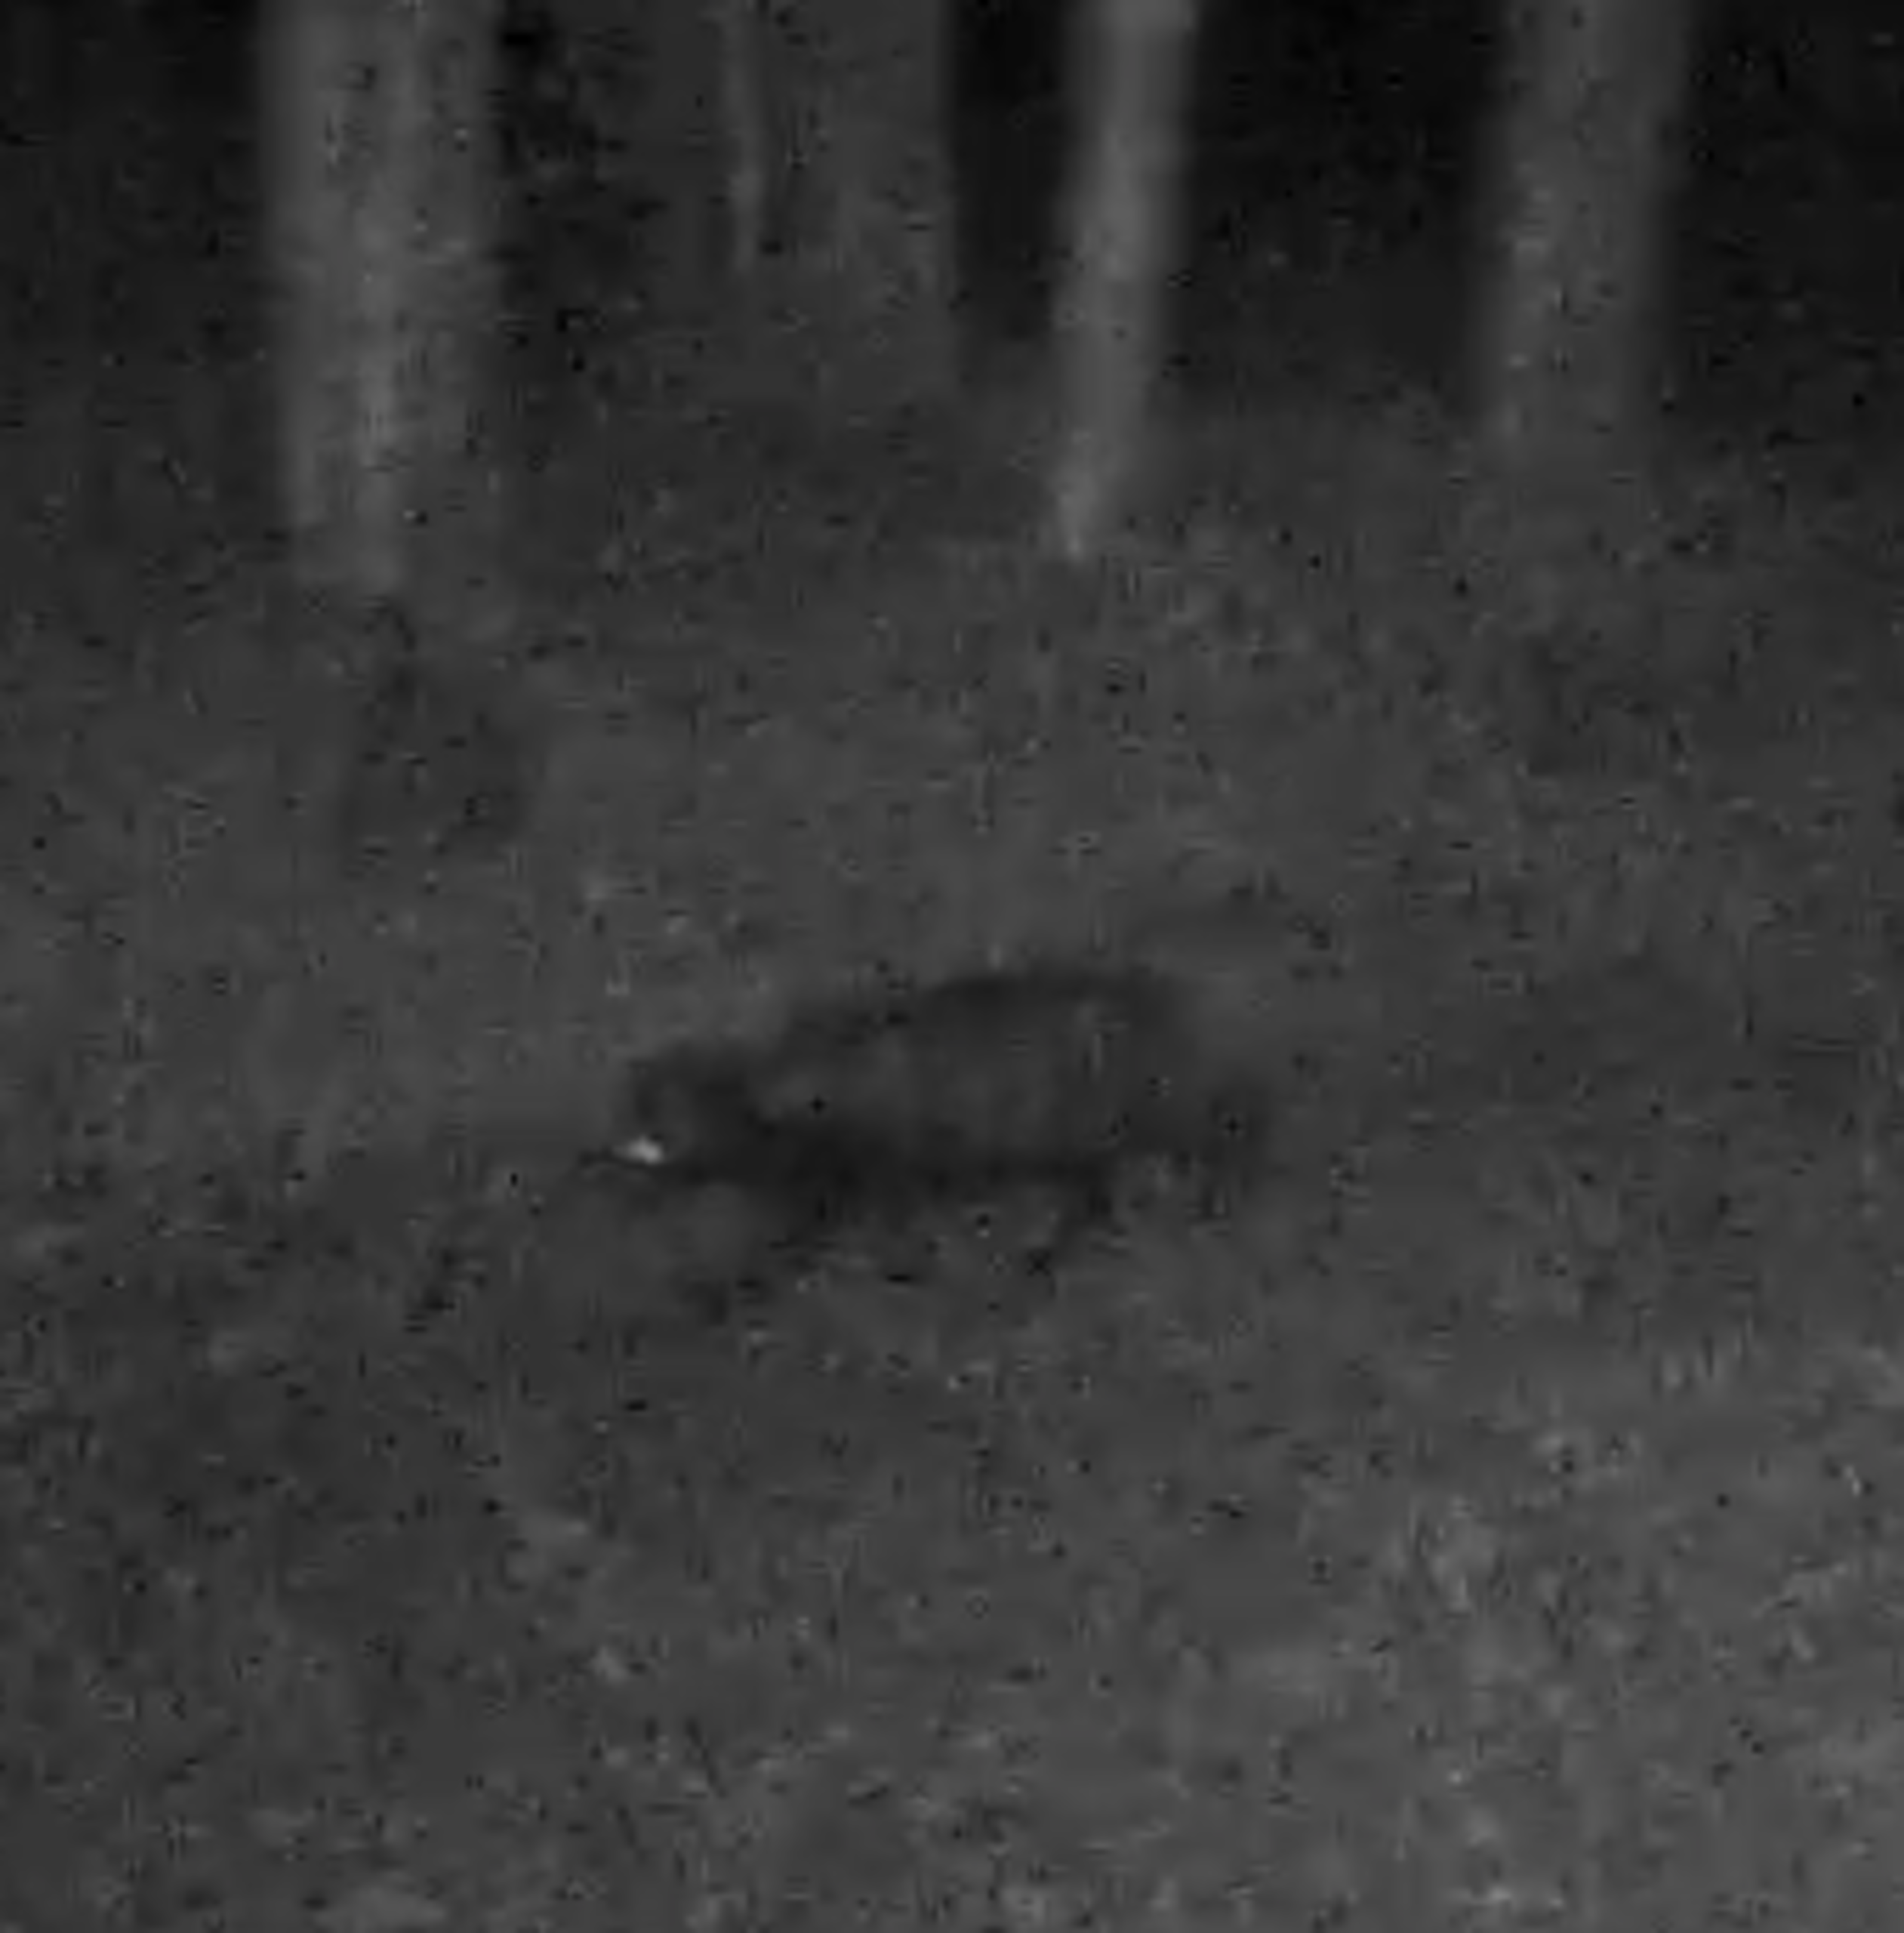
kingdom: Animalia
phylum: Chordata
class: Mammalia
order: Carnivora
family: Canidae
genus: Nyctereutes
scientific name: Nyctereutes procyonoides
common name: Mårhund
